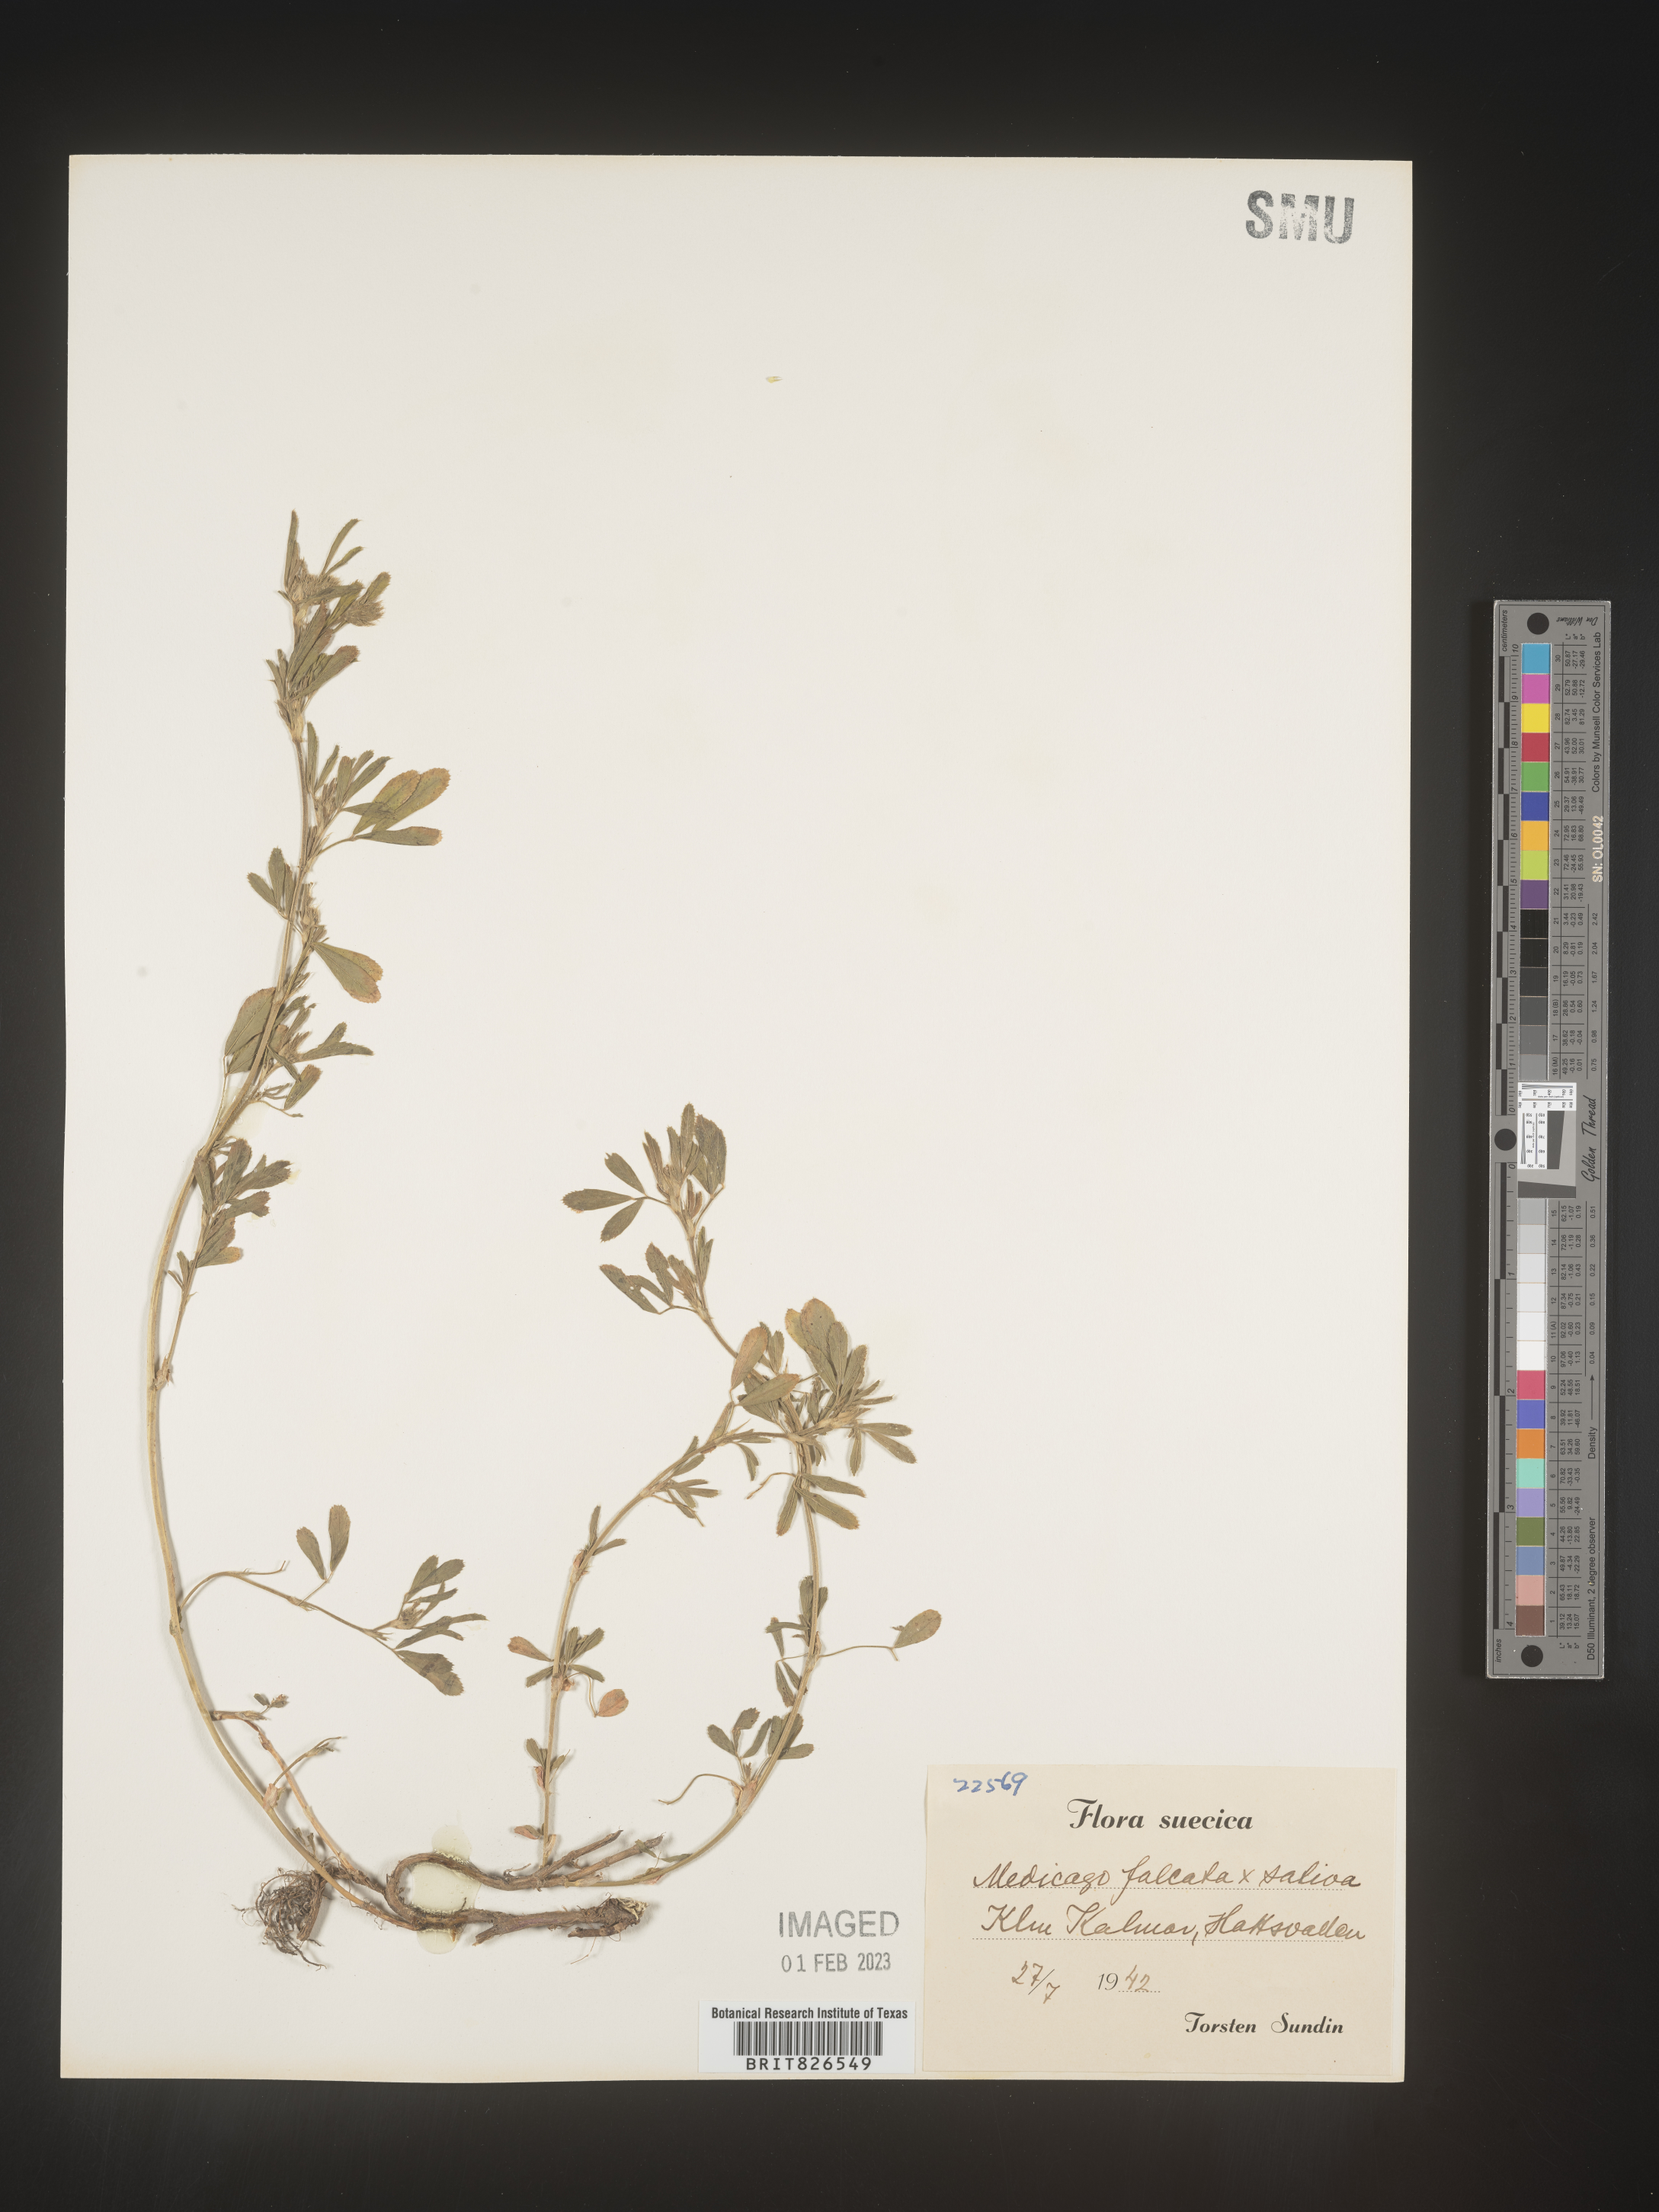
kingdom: Plantae
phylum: Tracheophyta
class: Magnoliopsida
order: Fabales
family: Fabaceae
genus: Medicago
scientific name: Medicago
